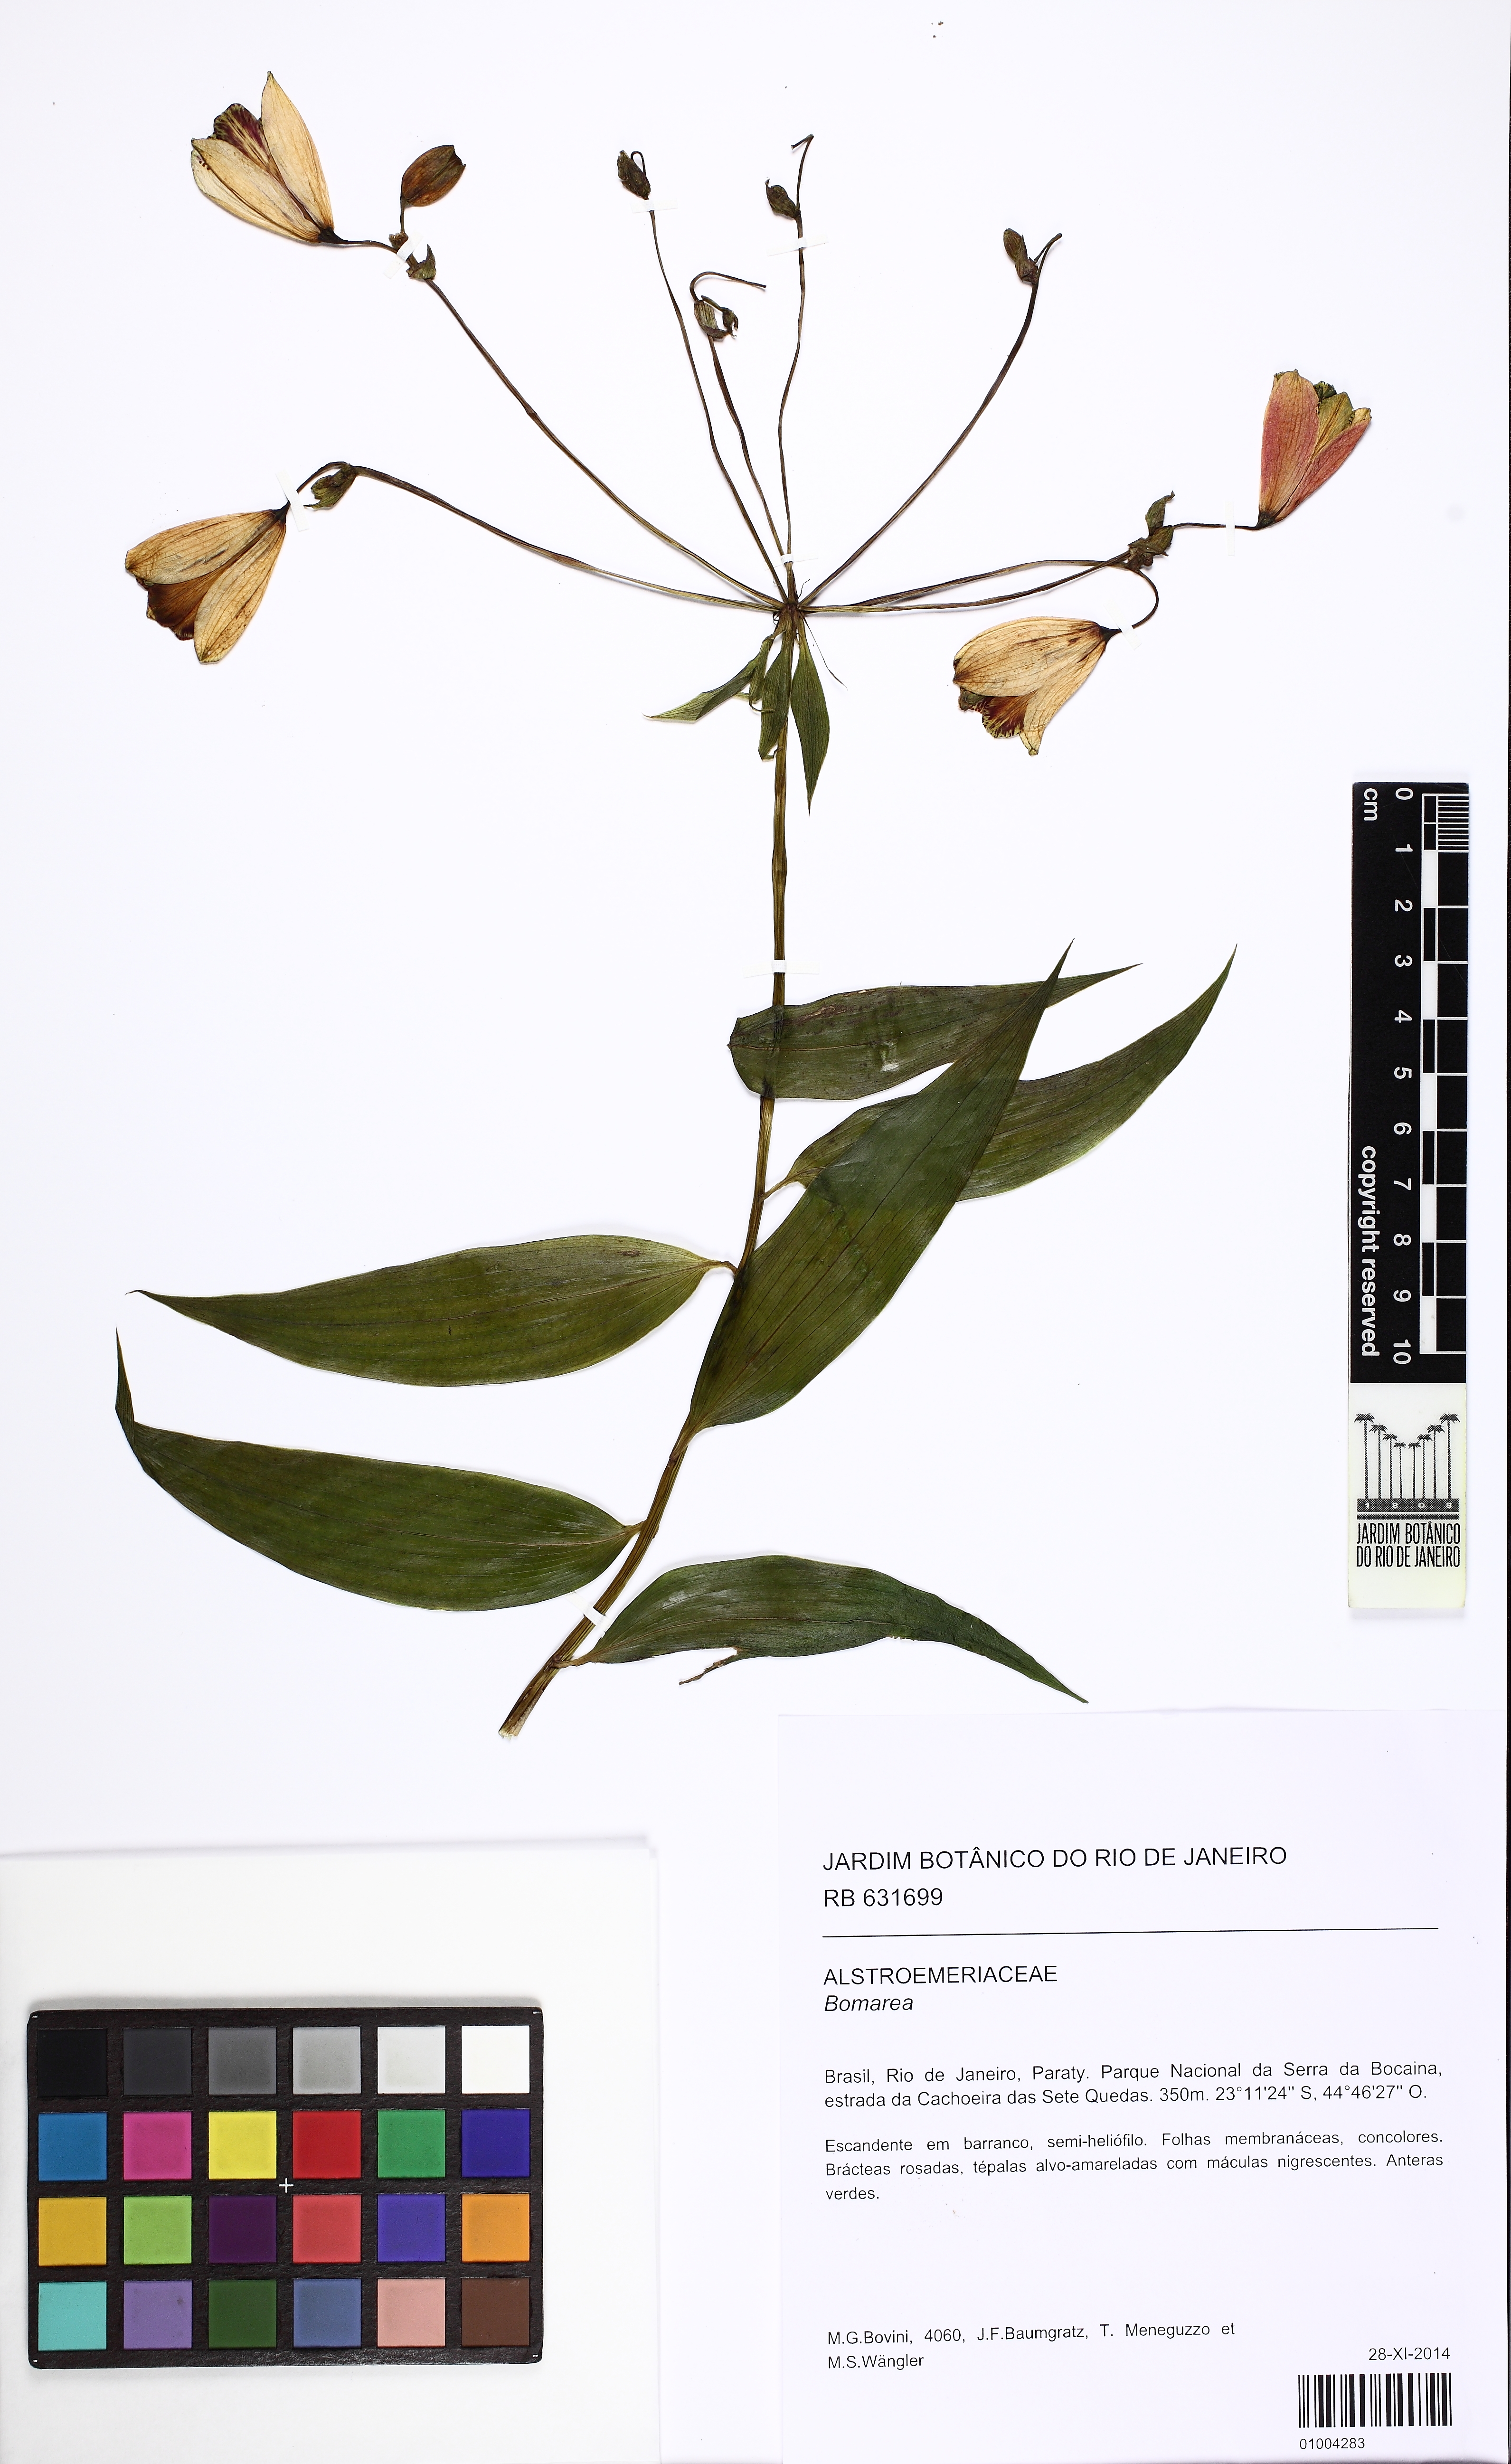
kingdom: Plantae
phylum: Tracheophyta
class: Liliopsida
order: Liliales
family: Alstroemeriaceae
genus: Bomarea
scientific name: Bomarea
